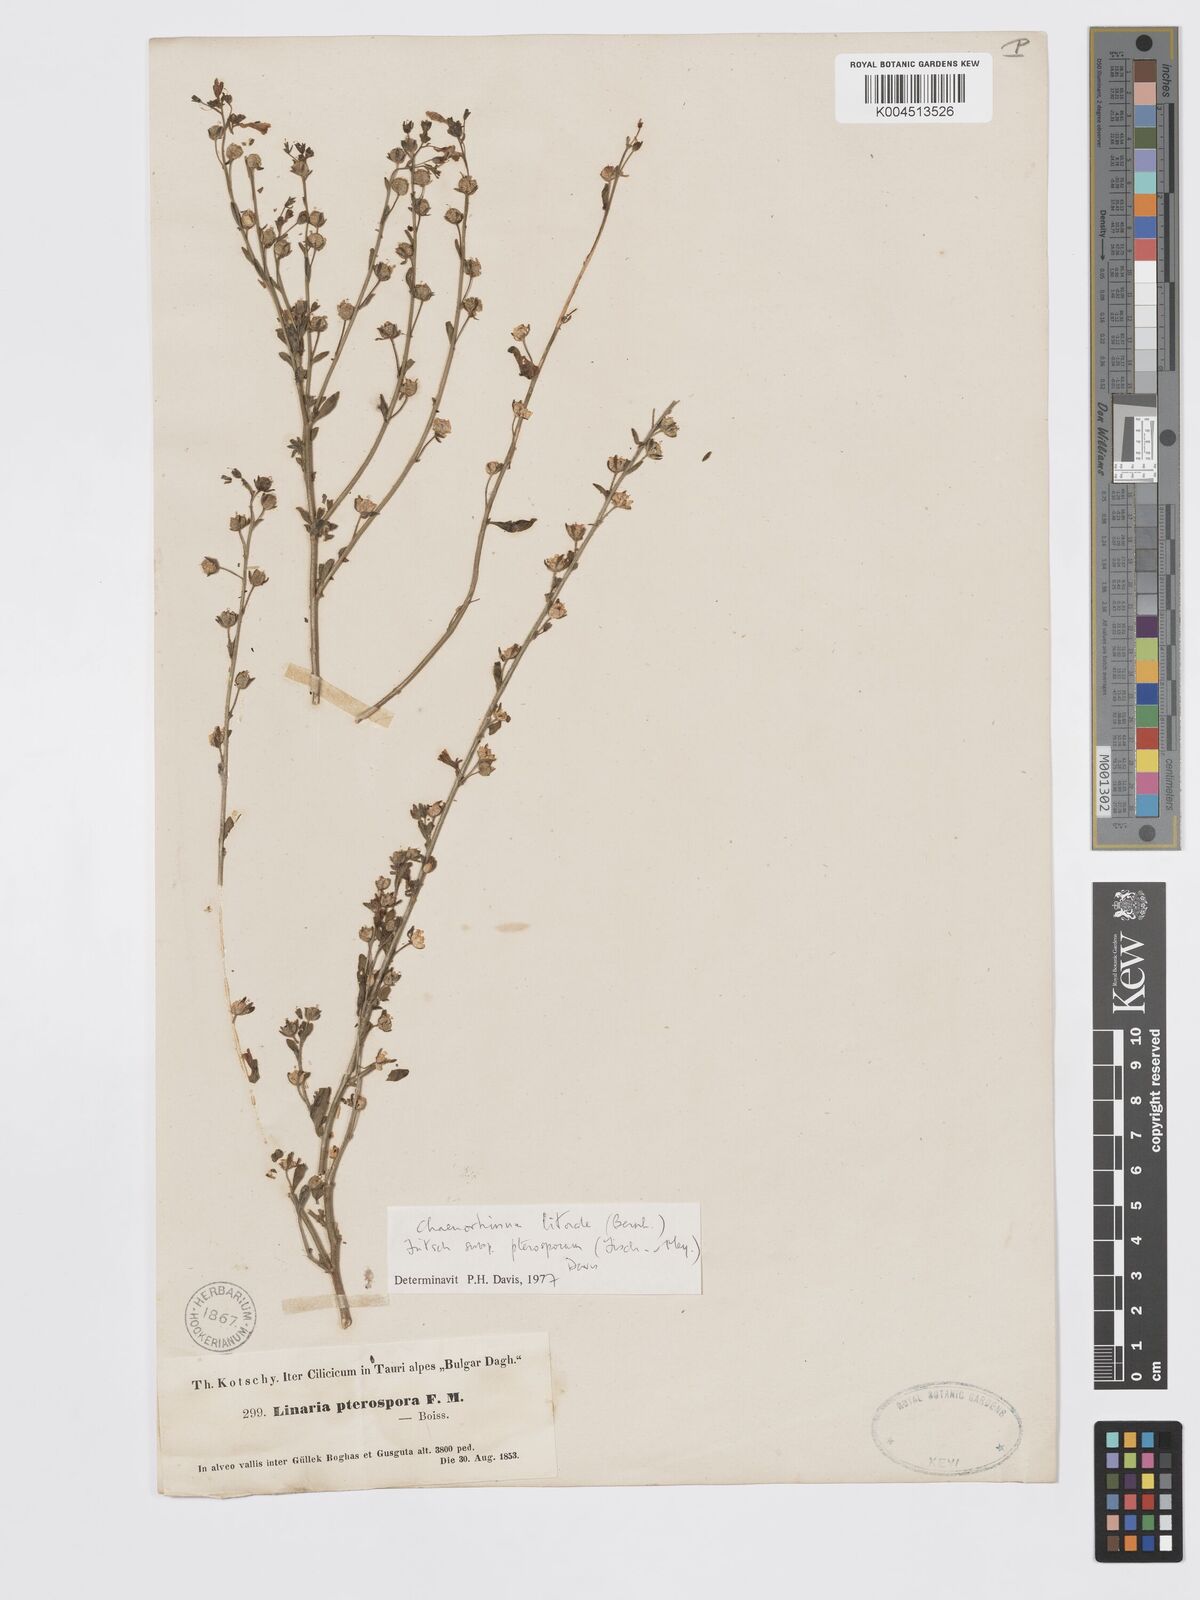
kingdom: Plantae
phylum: Tracheophyta
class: Magnoliopsida
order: Lamiales
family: Plantaginaceae
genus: Chaenorhinum
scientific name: Chaenorhinum litorale
